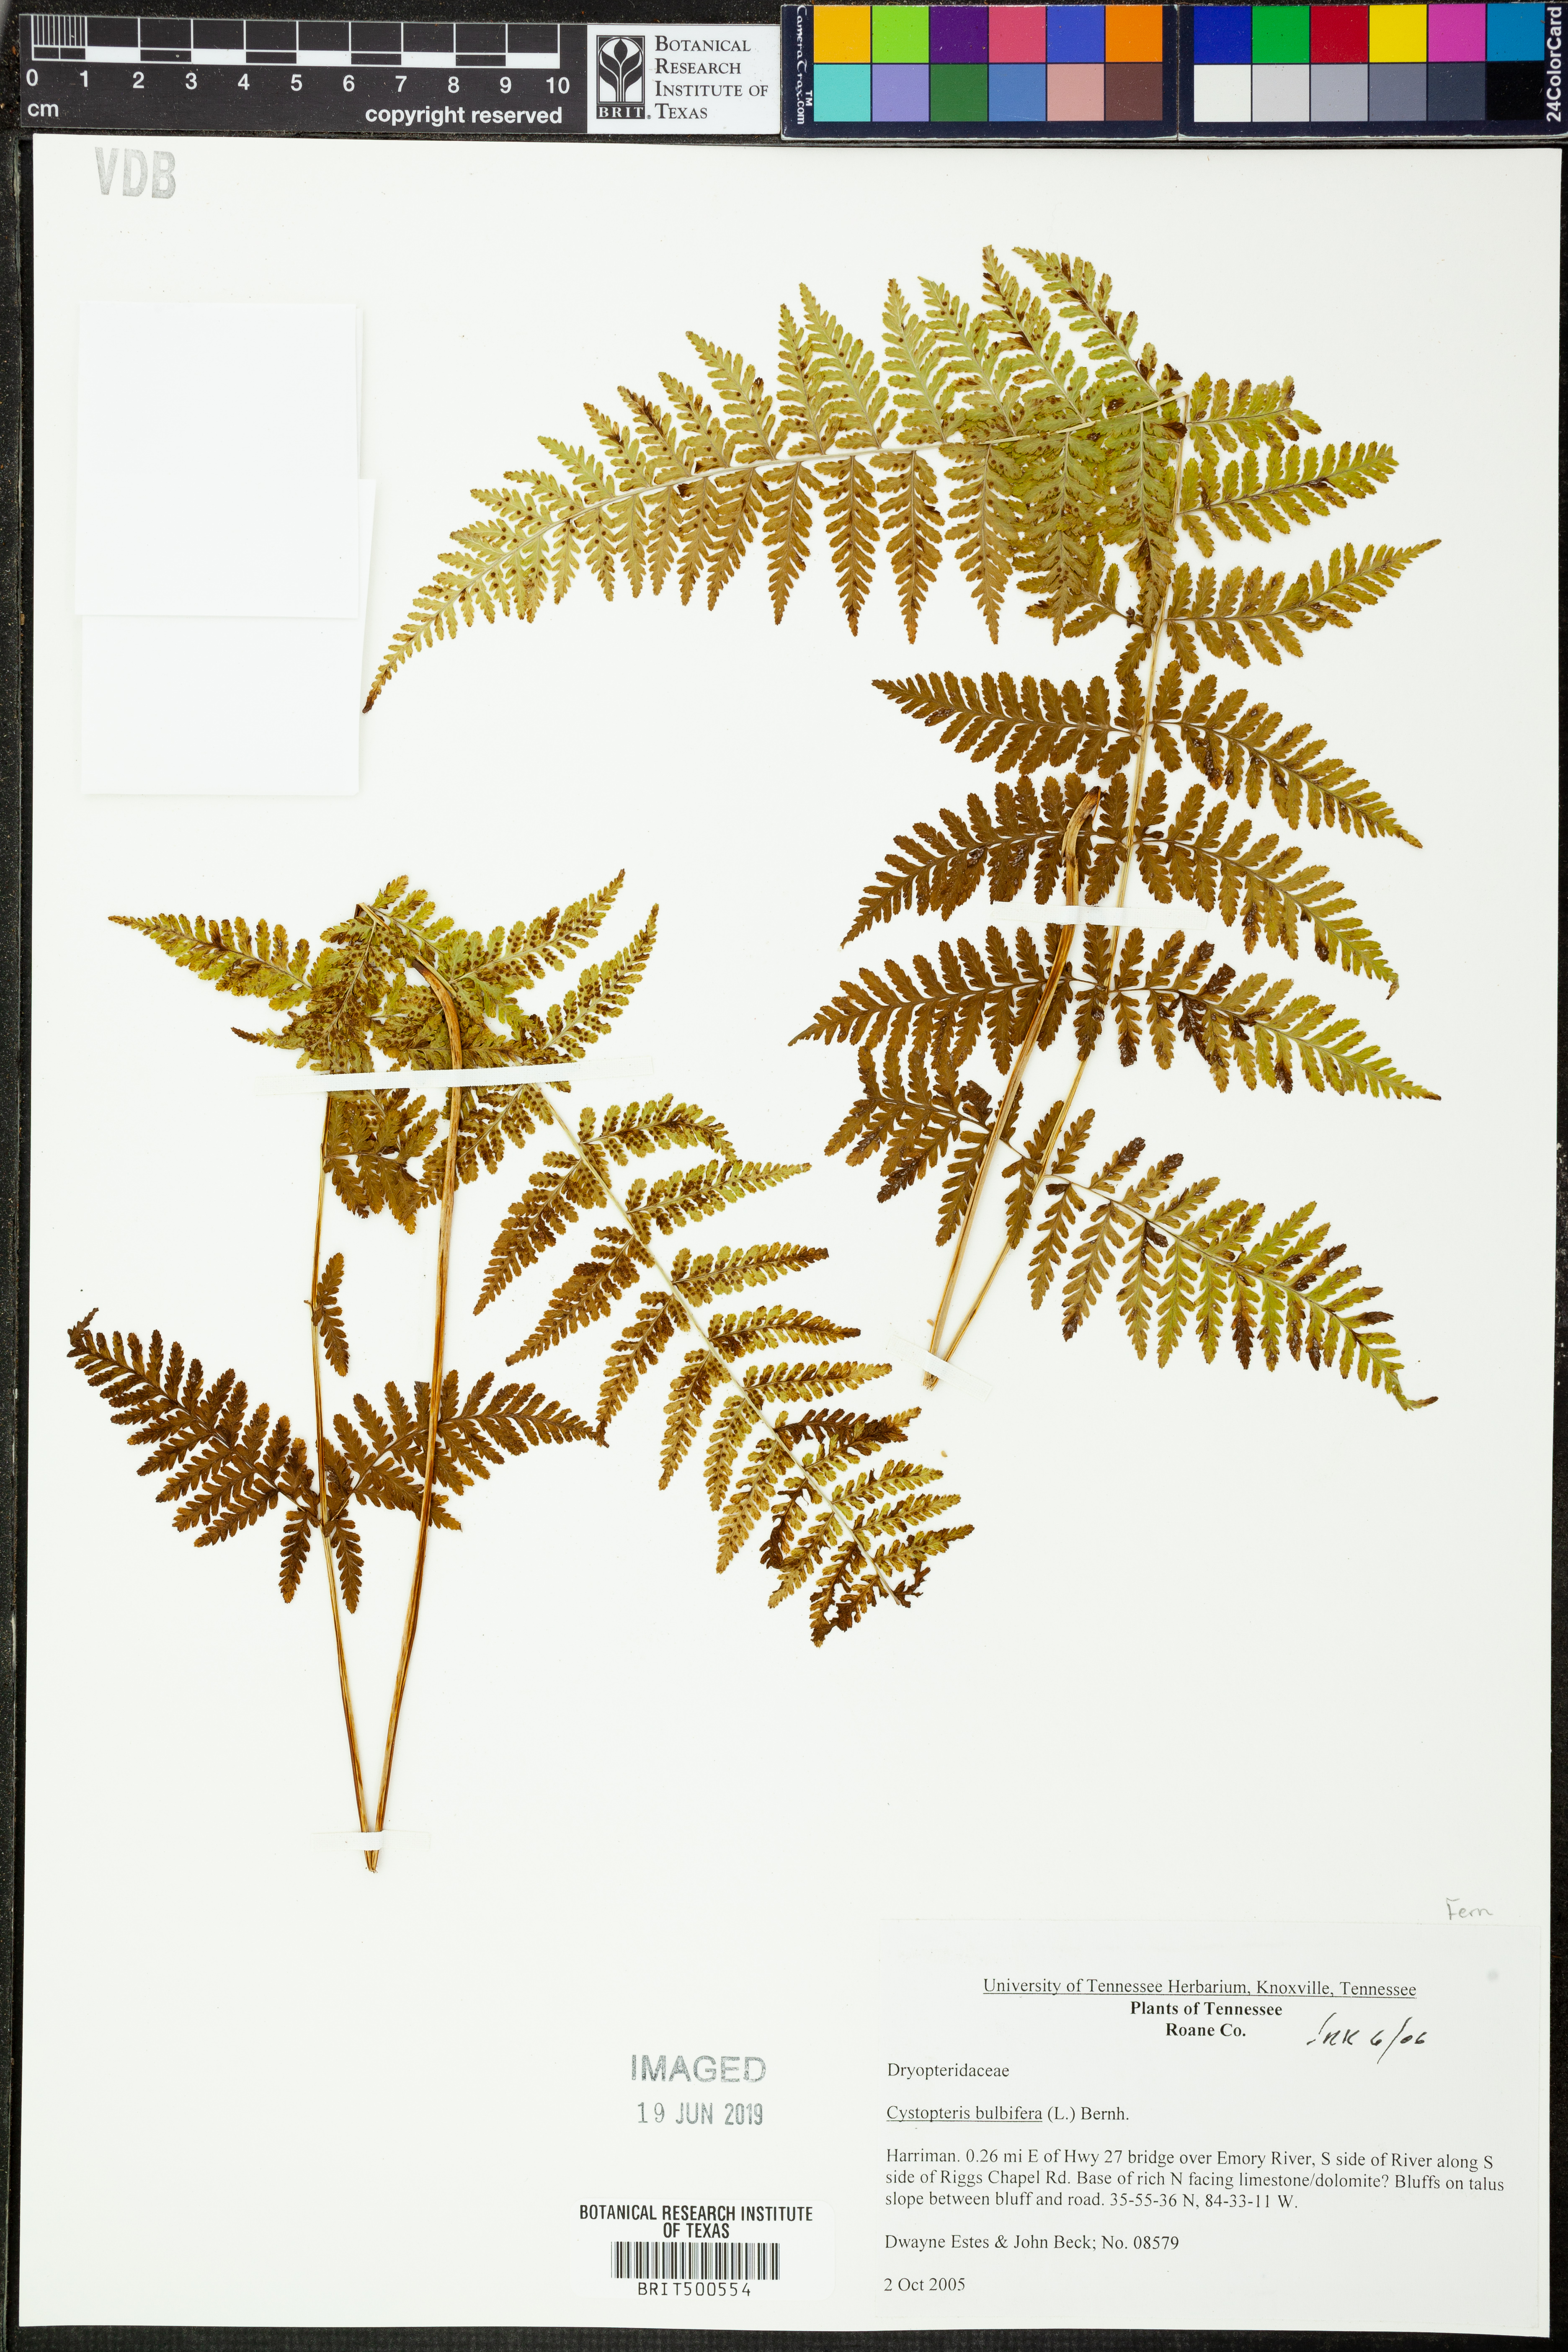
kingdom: Plantae
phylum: Tracheophyta
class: Polypodiopsida
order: Polypodiales
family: Cystopteridaceae
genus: Cystopteris
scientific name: Cystopteris bulbifera
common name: Bulblet bladder fern
